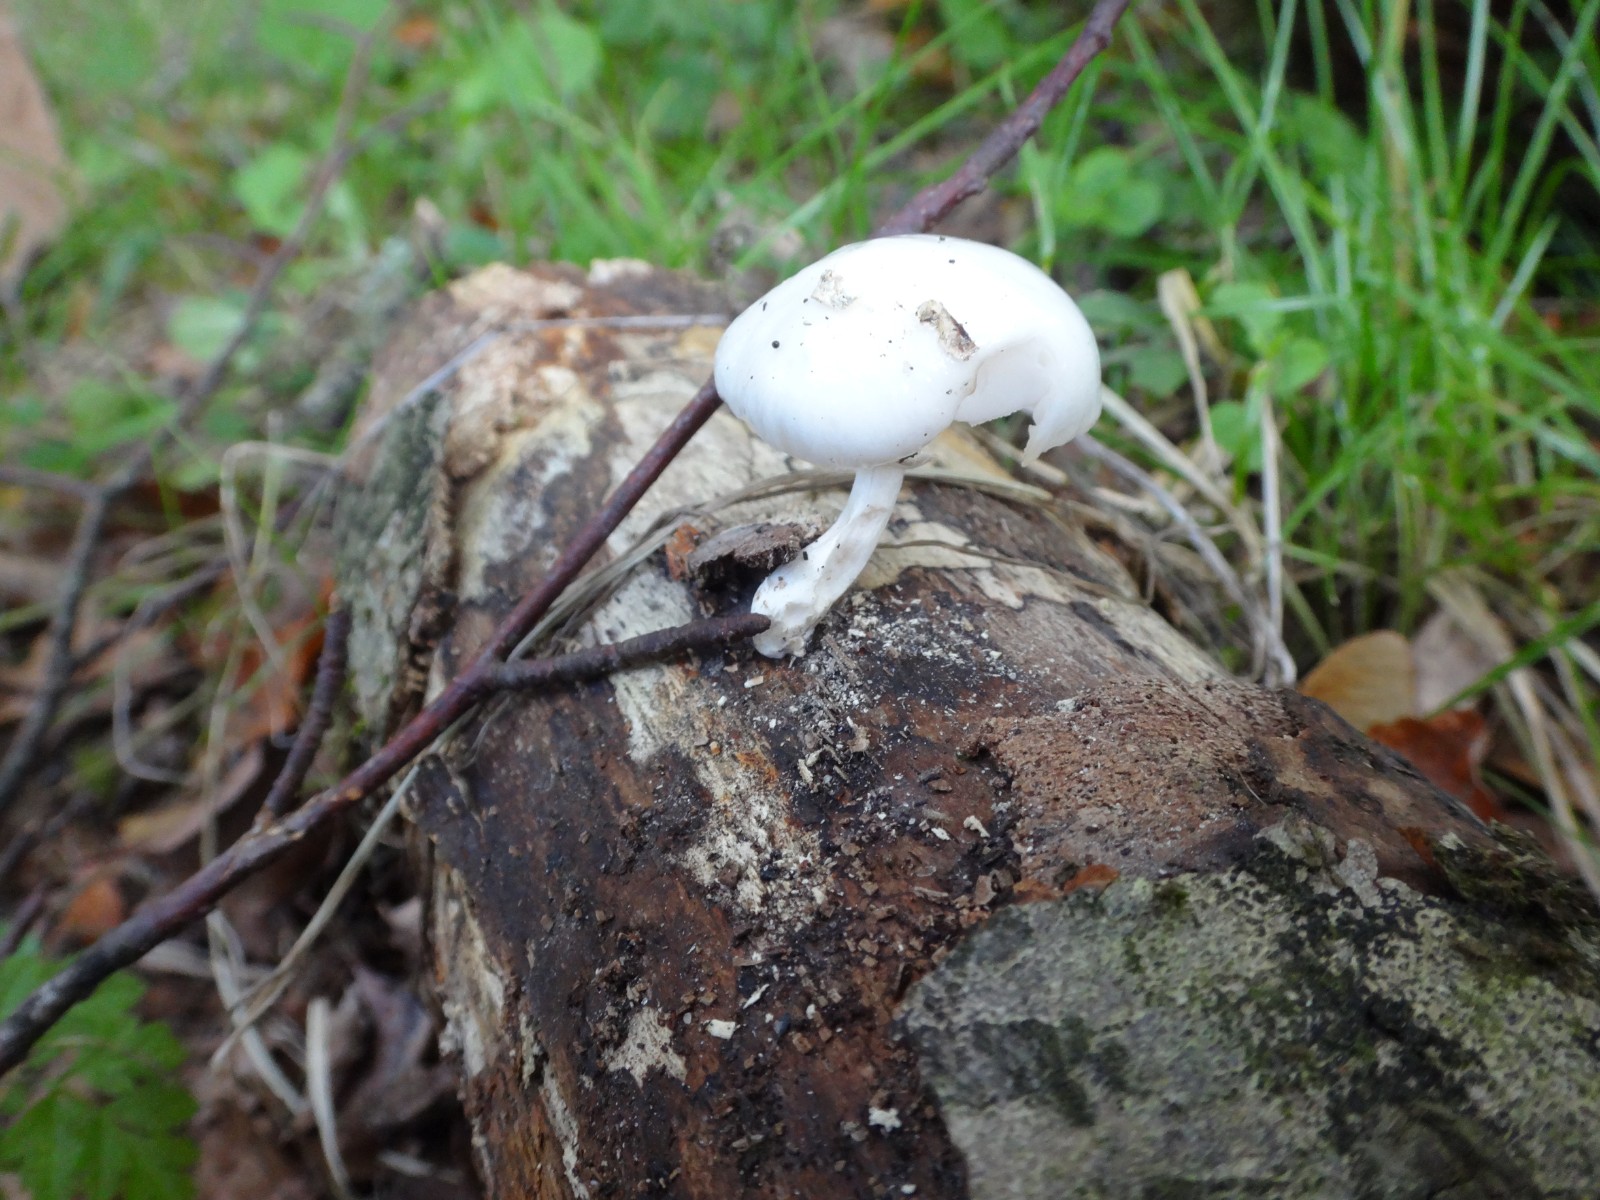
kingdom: Fungi
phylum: Basidiomycota
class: Agaricomycetes
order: Agaricales
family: Physalacriaceae
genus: Mucidula
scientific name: Mucidula mucida
